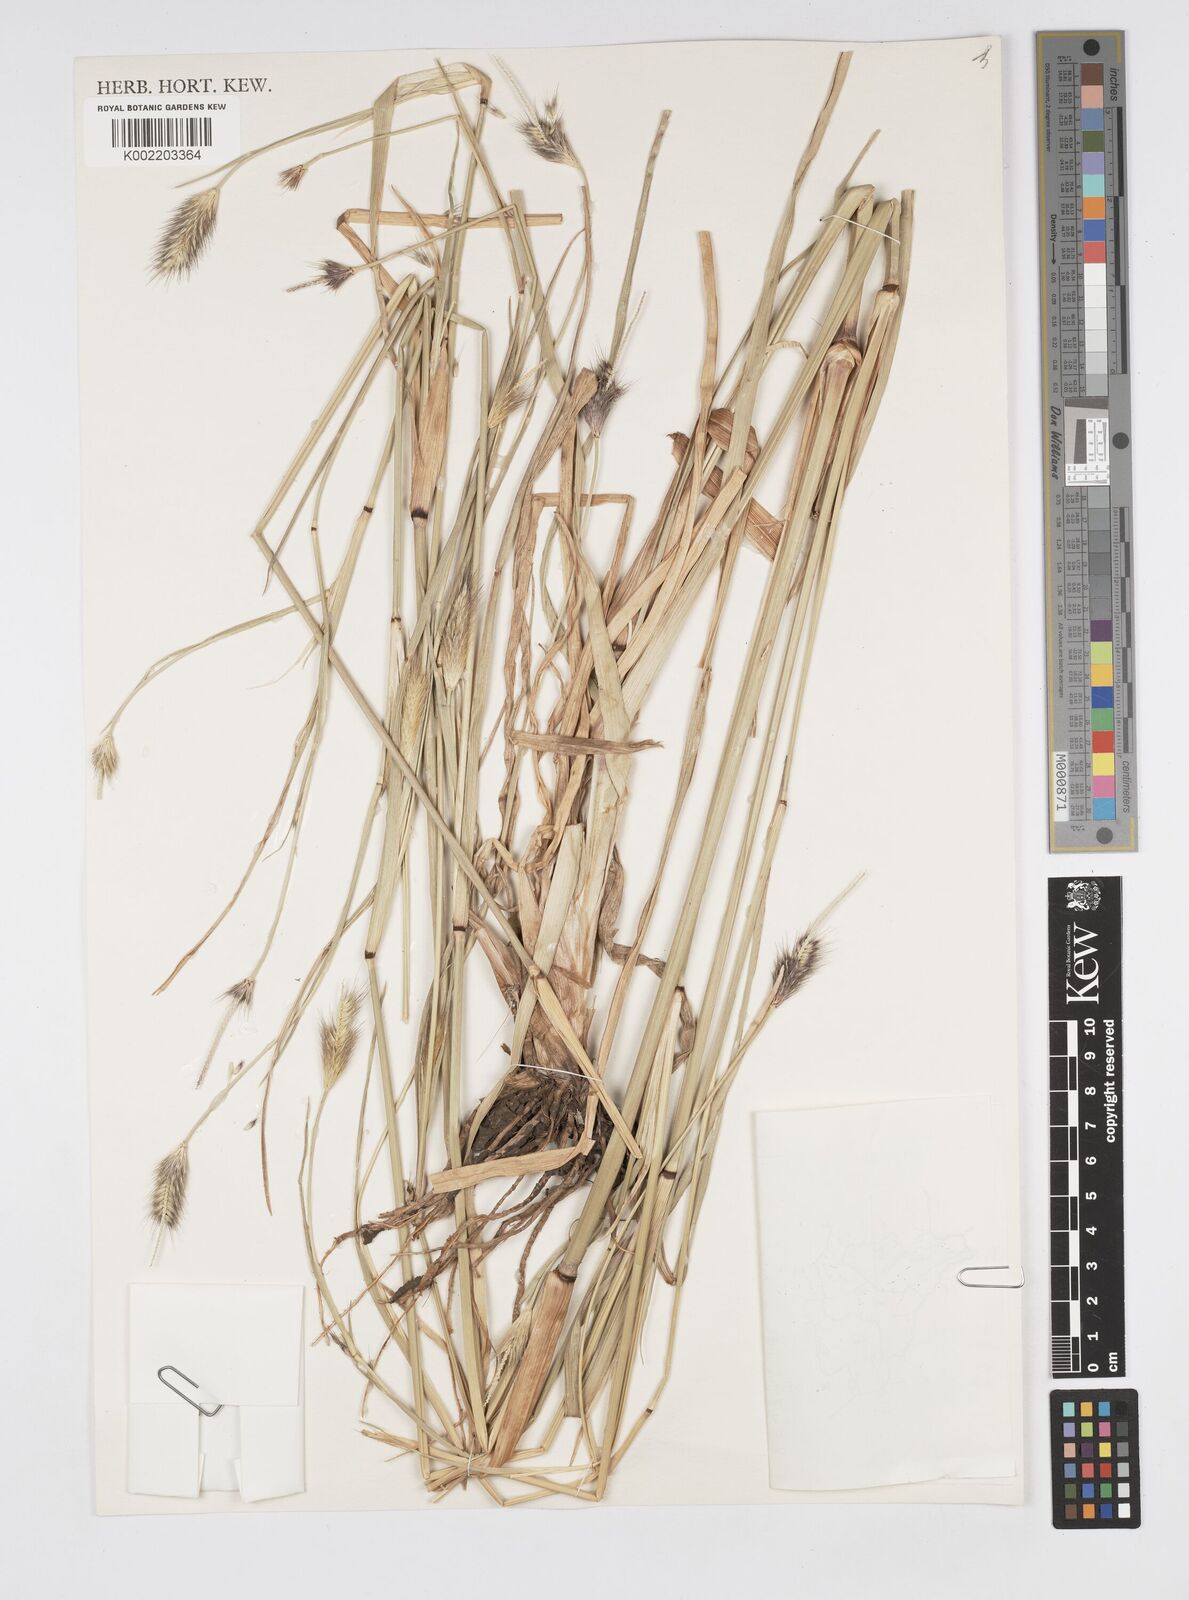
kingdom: Plantae
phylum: Tracheophyta
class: Liliopsida
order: Poales
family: Poaceae
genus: Cenchrus
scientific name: Cenchrus ramosus
